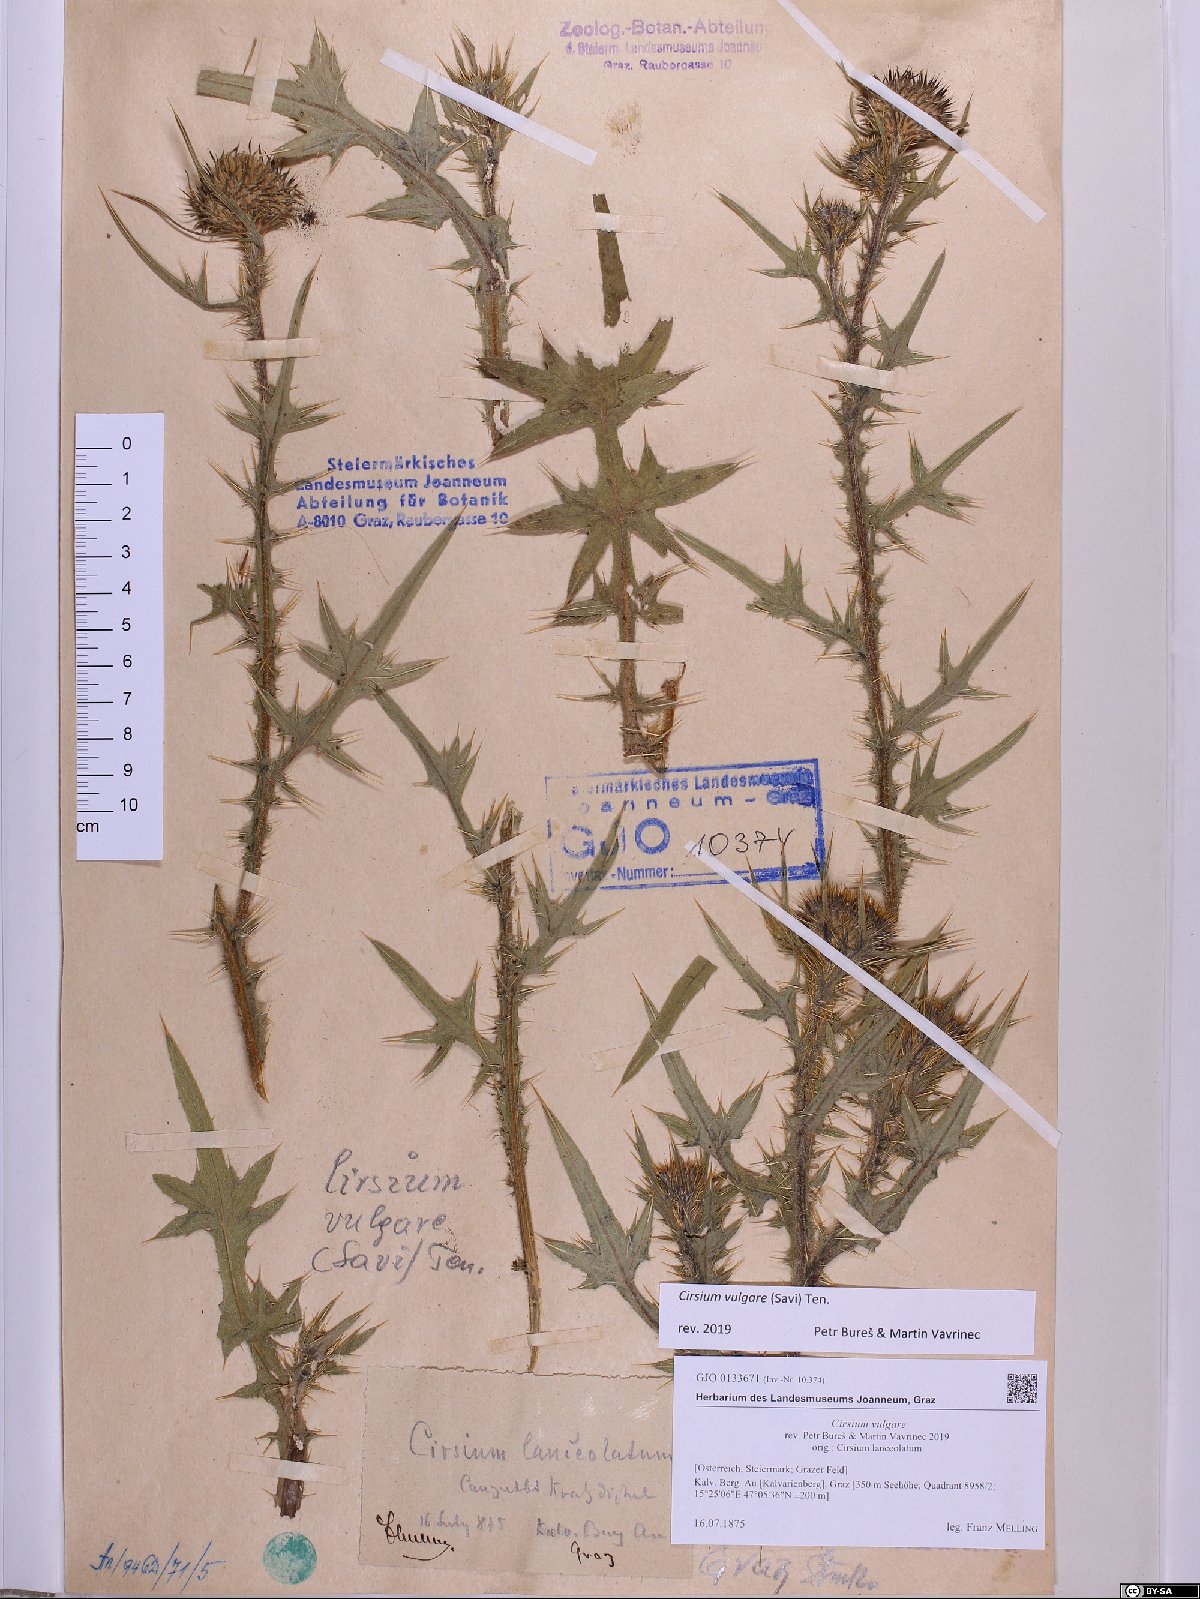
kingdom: Plantae
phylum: Tracheophyta
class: Magnoliopsida
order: Asterales
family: Asteraceae
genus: Cirsium
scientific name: Cirsium vulgare
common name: Bull thistle
